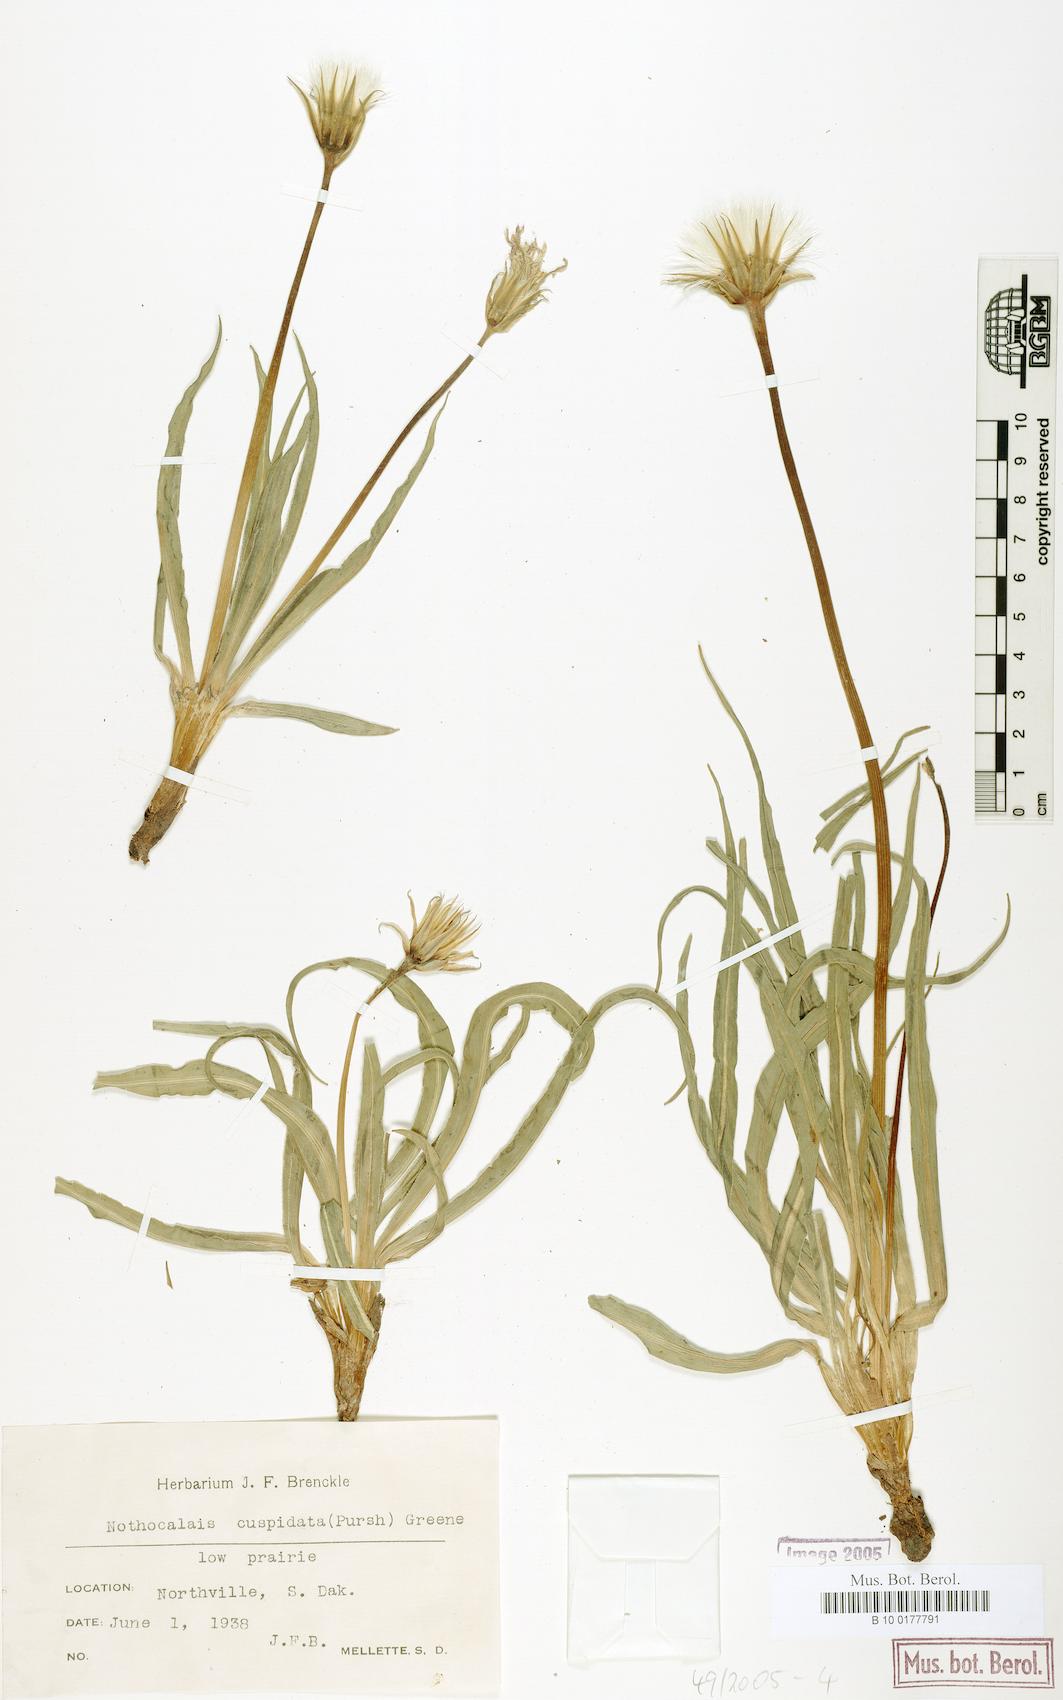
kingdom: Plantae
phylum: Tracheophyta
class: Magnoliopsida
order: Asterales
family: Asteraceae
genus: Microseris
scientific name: Microseris cuspidata
